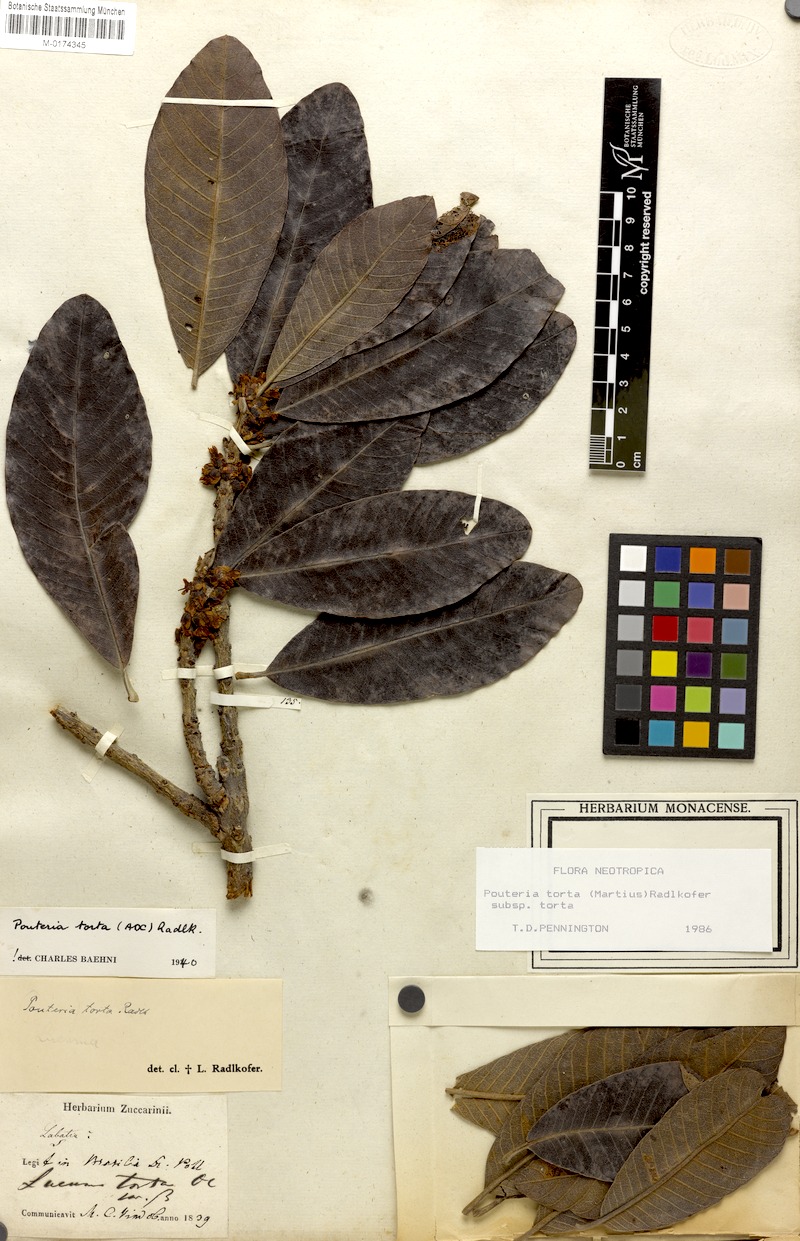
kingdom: Plantae
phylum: Tracheophyta
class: Magnoliopsida
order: Ericales
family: Sapotaceae
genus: Pouteria
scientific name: Pouteria torta
